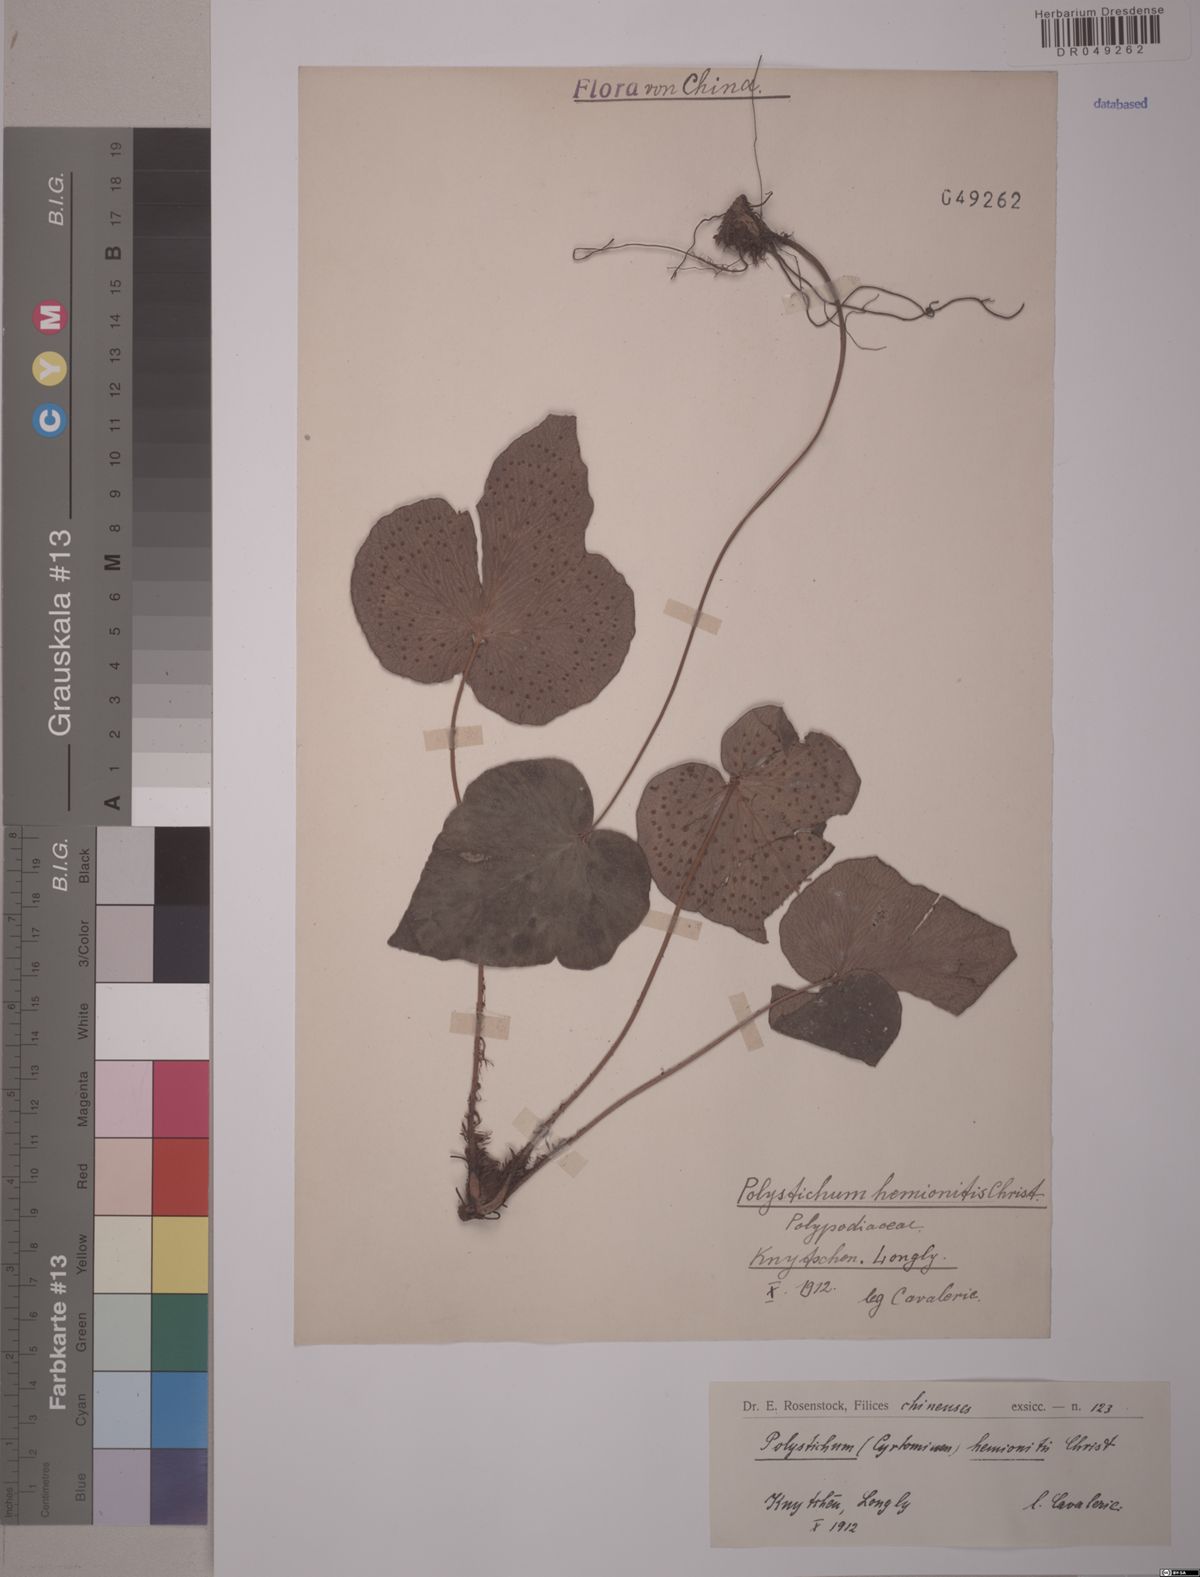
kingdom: Plantae
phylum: Tracheophyta
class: Polypodiopsida
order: Polypodiales
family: Dryopteridaceae
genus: Polystichum
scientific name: Polystichum
